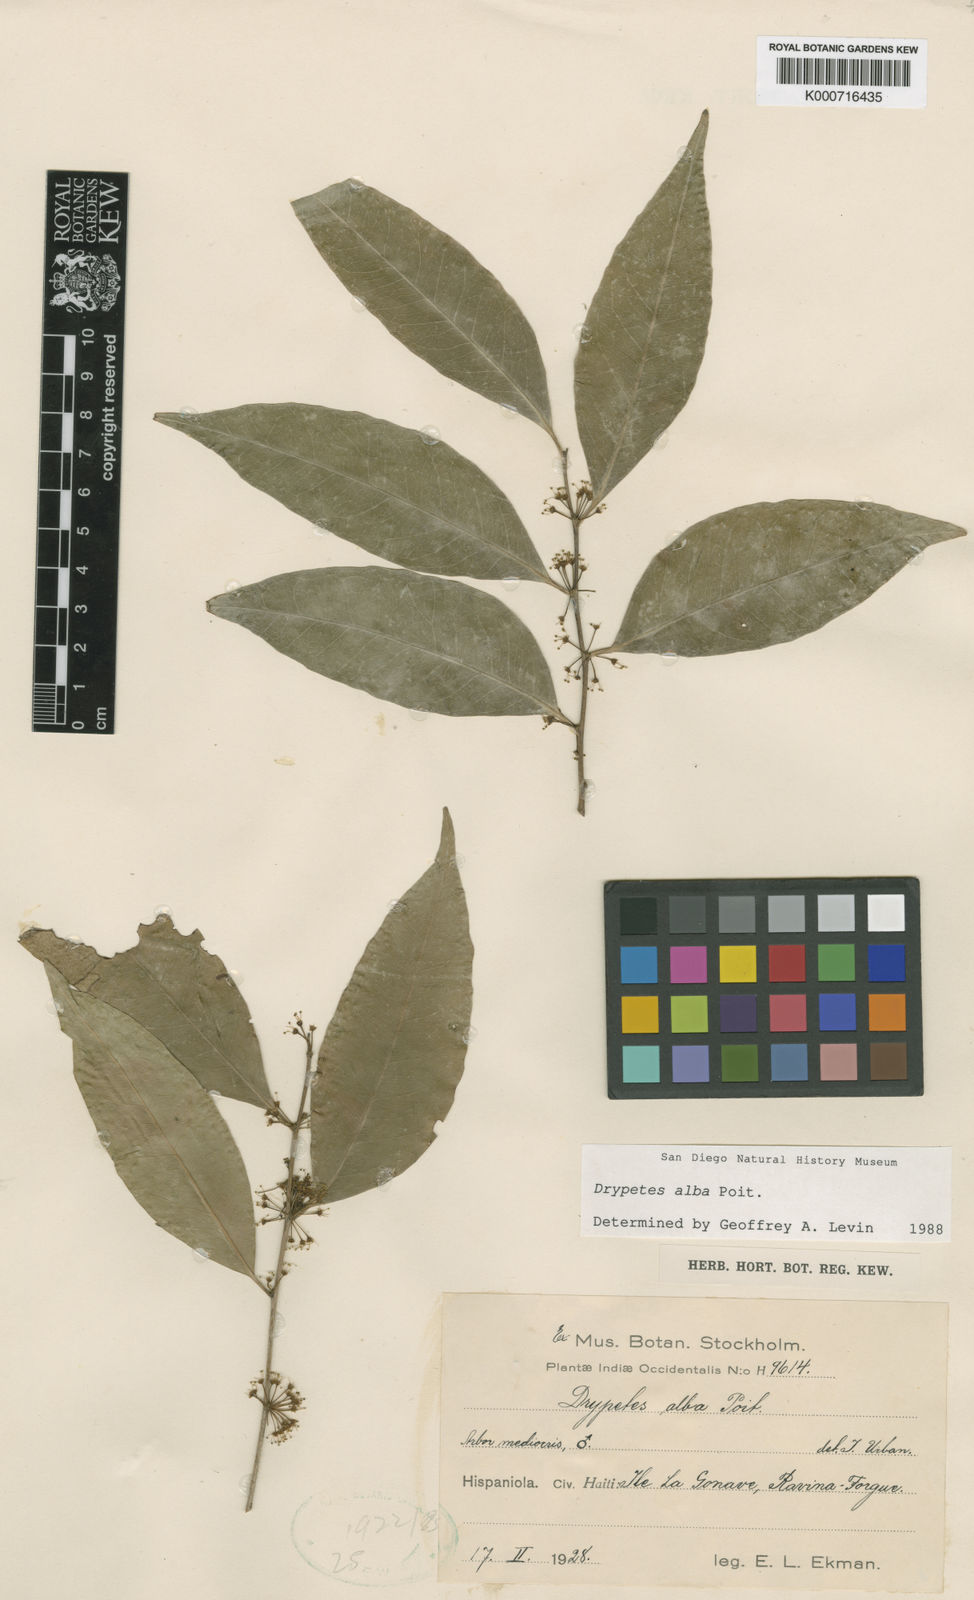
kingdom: Plantae
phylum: Tracheophyta
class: Magnoliopsida
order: Malpighiales
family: Putranjivaceae
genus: Drypetes
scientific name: Drypetes alba
